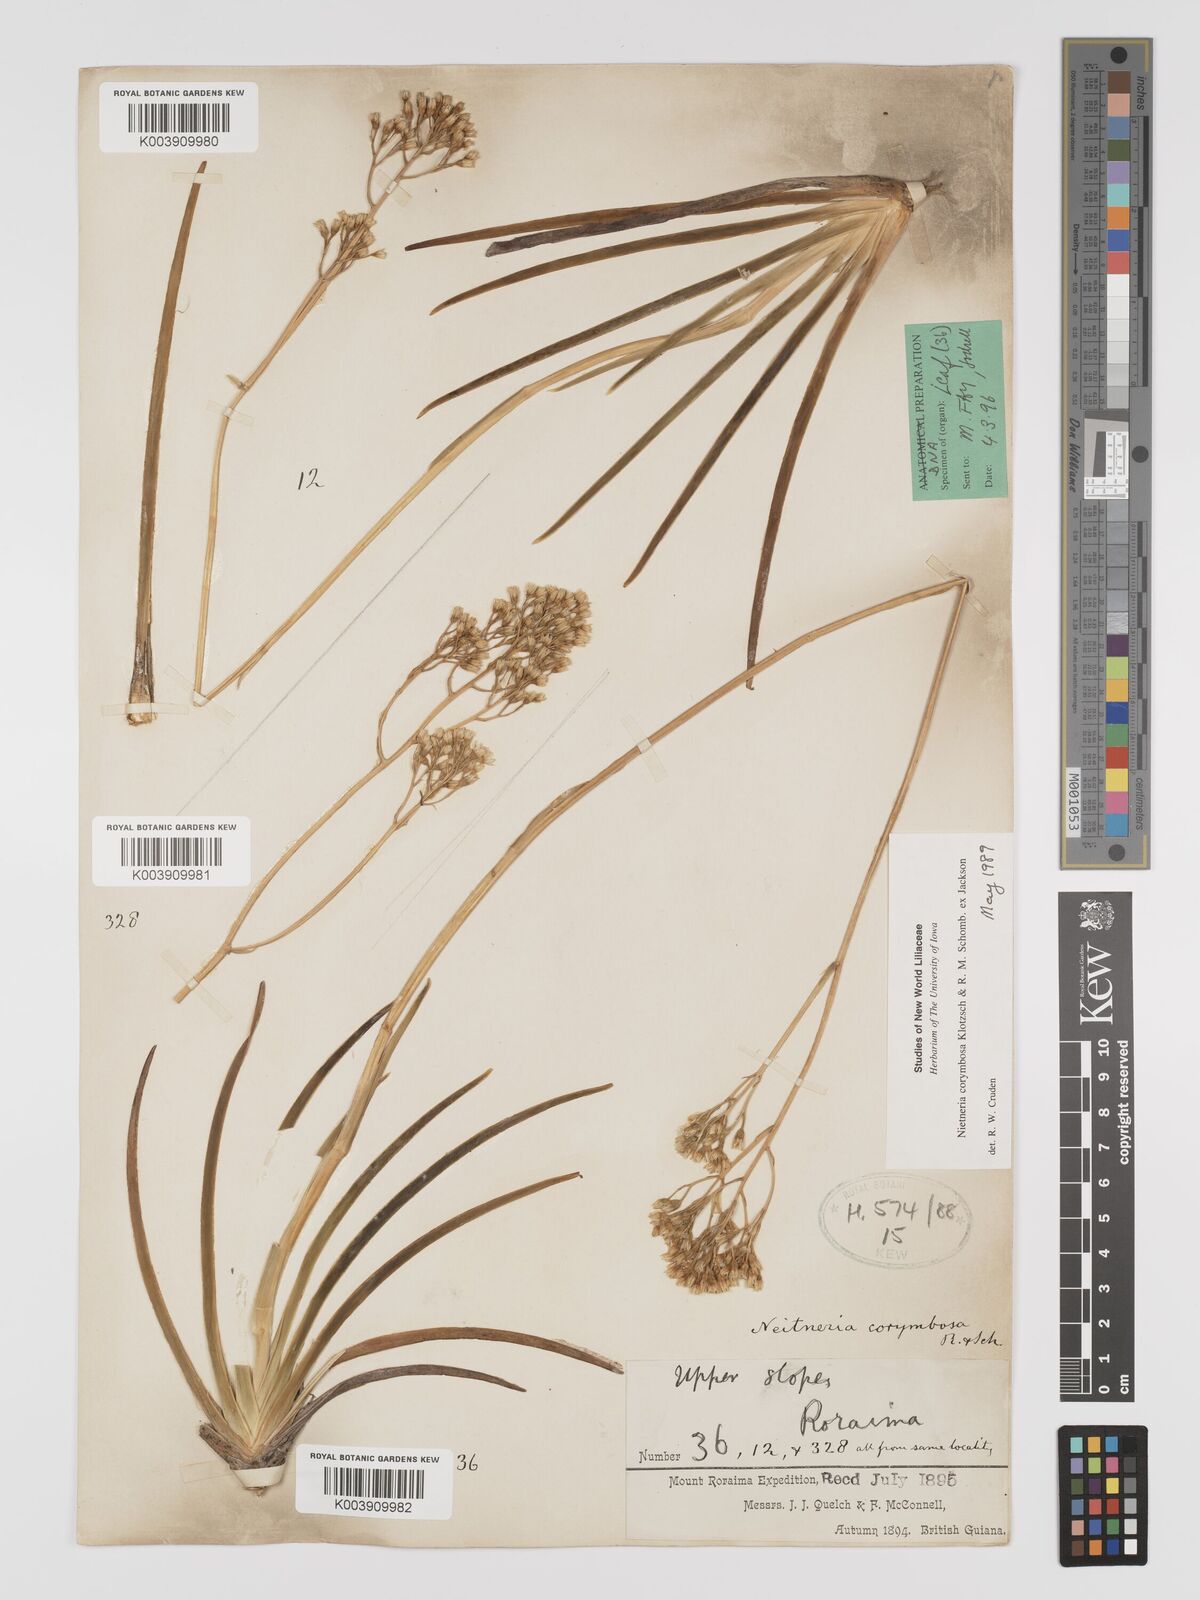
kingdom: Plantae
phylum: Tracheophyta
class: Liliopsida
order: Dioscoreales
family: Nartheciaceae
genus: Nietneria
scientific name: Nietneria corymbosa
